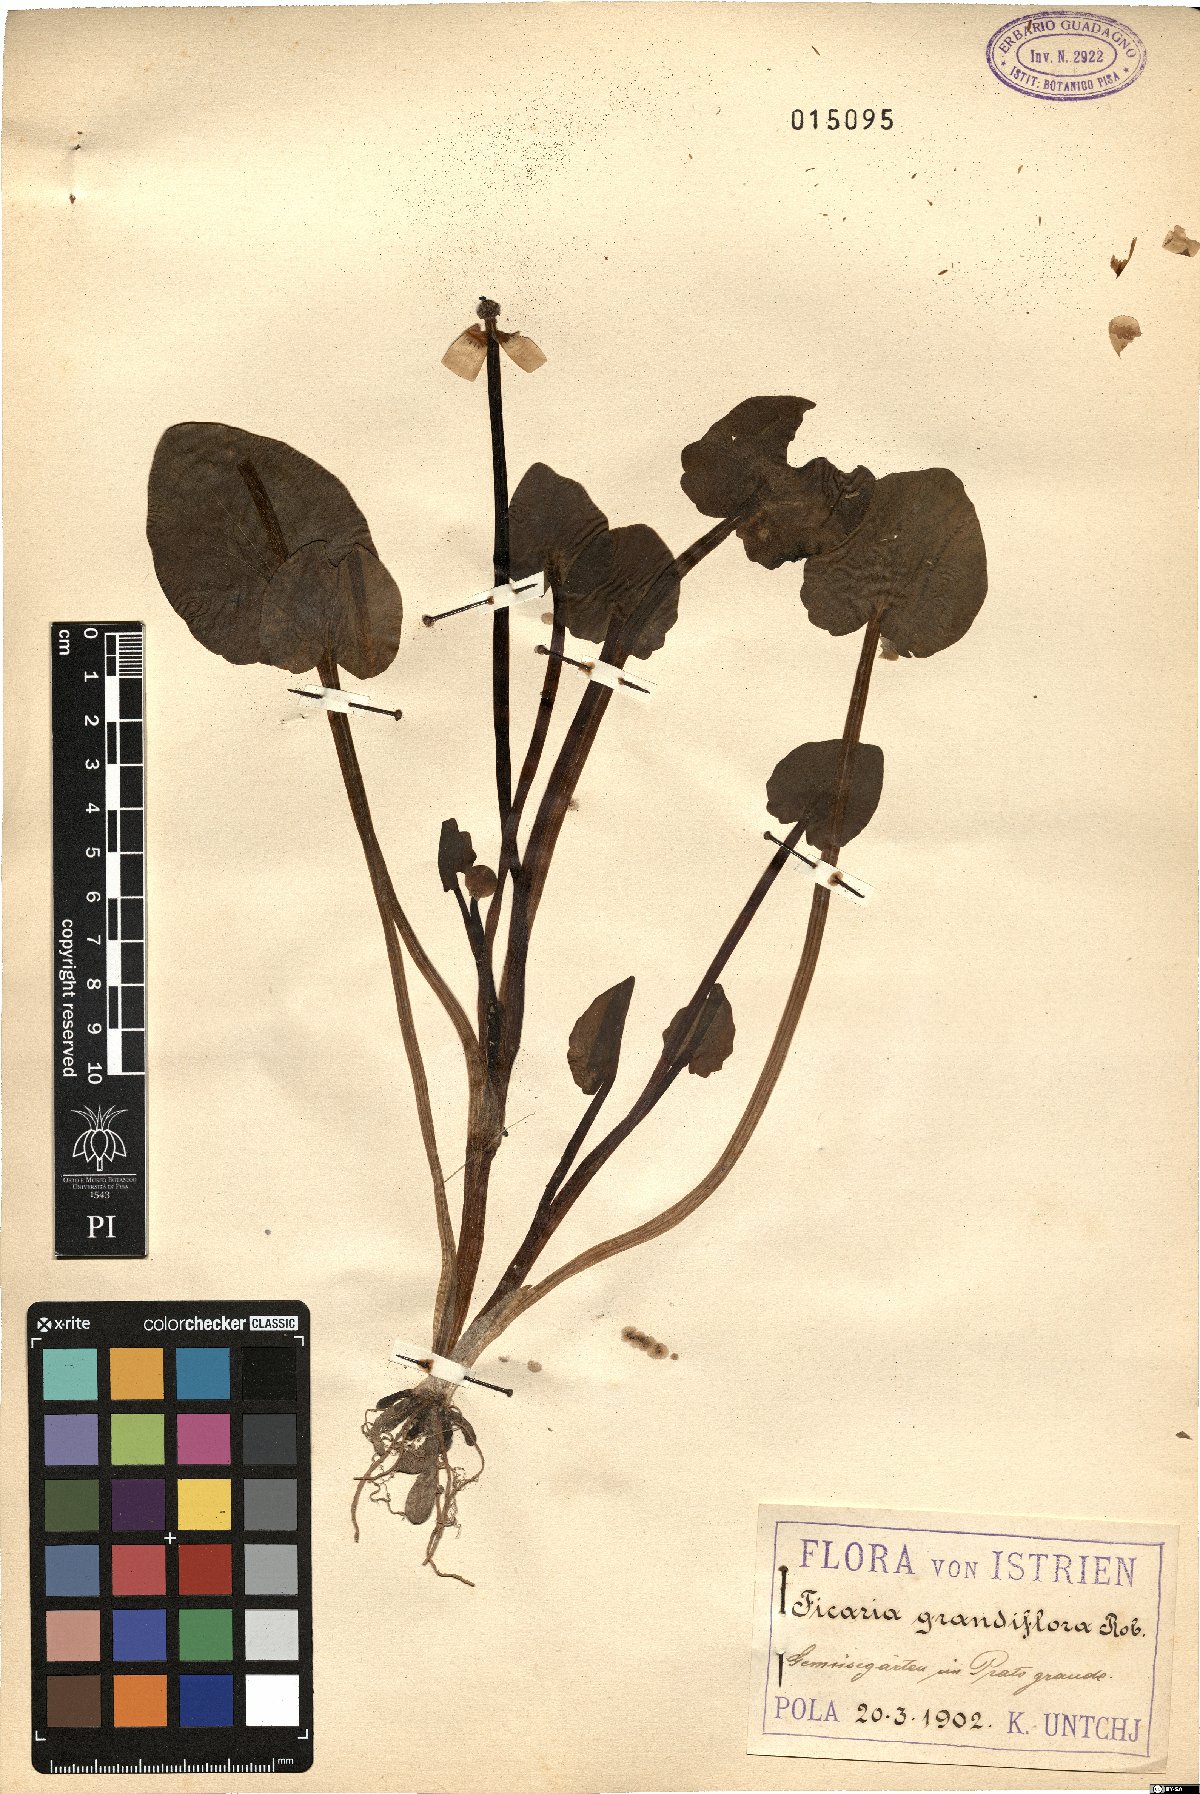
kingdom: Plantae
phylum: Tracheophyta
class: Magnoliopsida
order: Ranunculales
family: Ranunculaceae
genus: Ficaria
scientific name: Ficaria grandiflora
